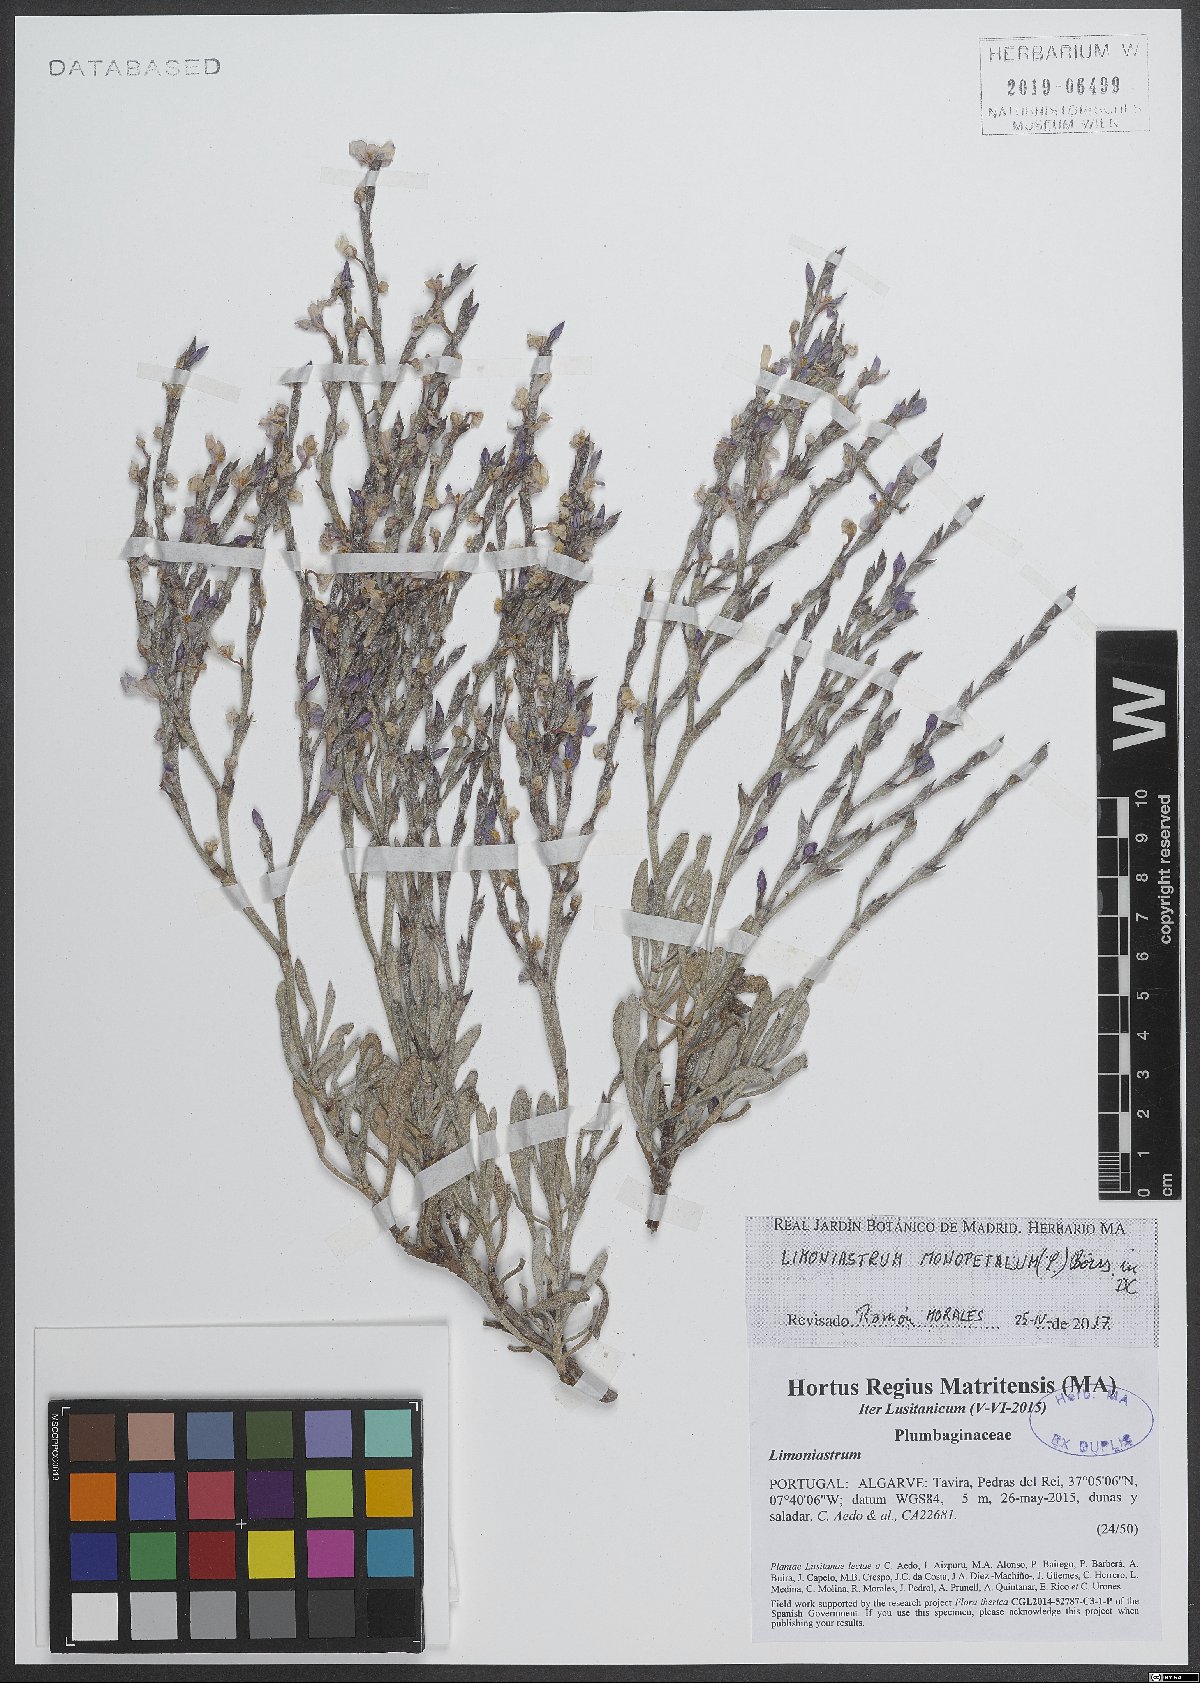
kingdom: Plantae
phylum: Tracheophyta
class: Magnoliopsida
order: Caryophyllales
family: Plumbaginaceae
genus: Limoniastrum
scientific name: Limoniastrum monopetalum
